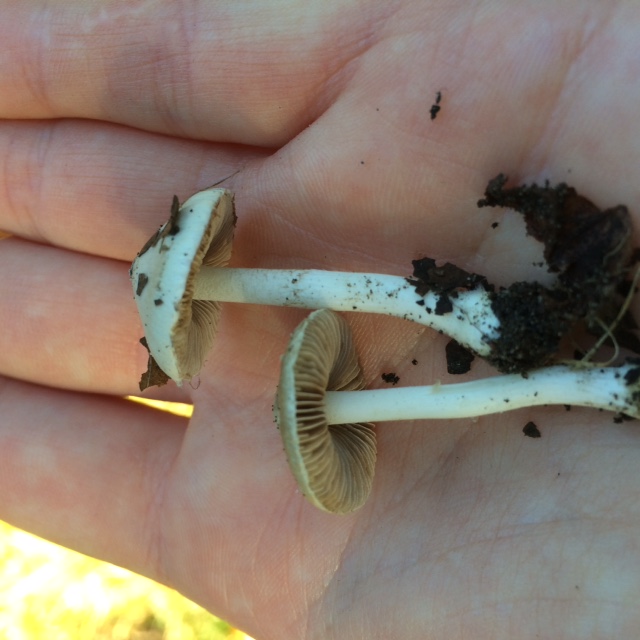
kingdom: Fungi
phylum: Basidiomycota
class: Agaricomycetes
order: Agaricales
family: Inocybaceae
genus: Inocybe
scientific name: Inocybe
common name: almindelig trævlhat
